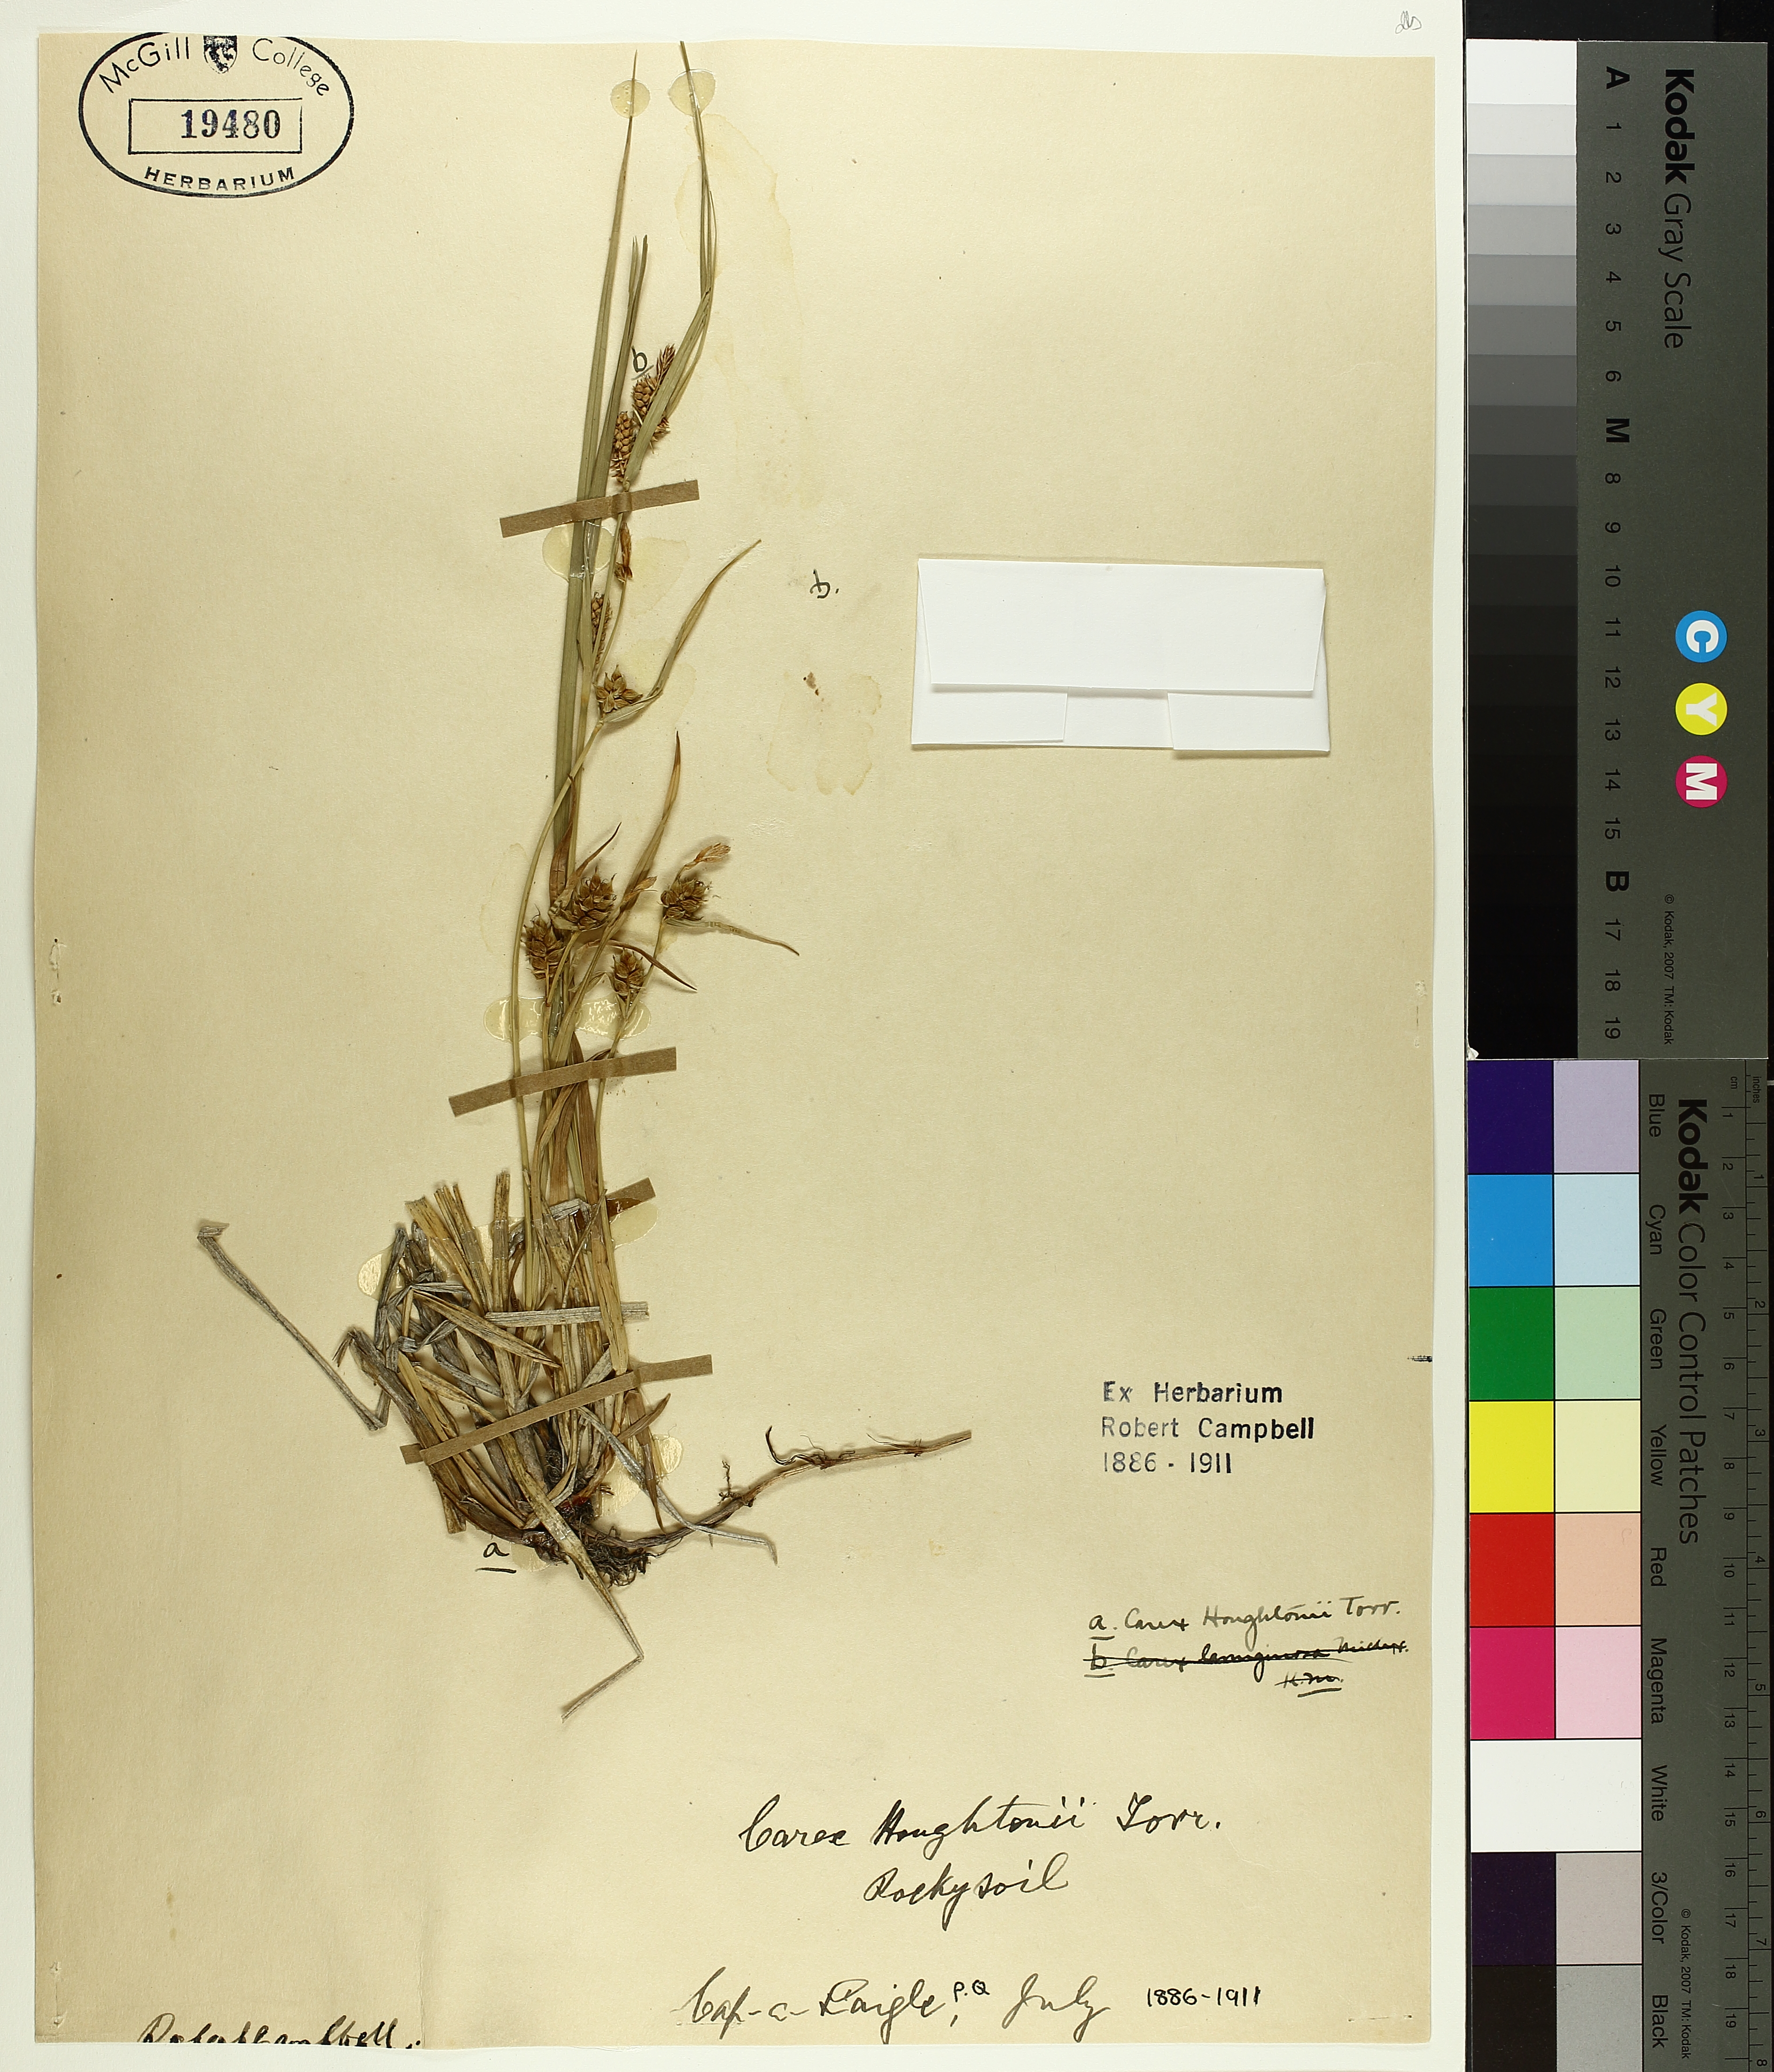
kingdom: Plantae
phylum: Tracheophyta
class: Liliopsida
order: Poales
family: Cyperaceae
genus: Carex
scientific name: Carex houghtoniana
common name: Houghton's sedge
